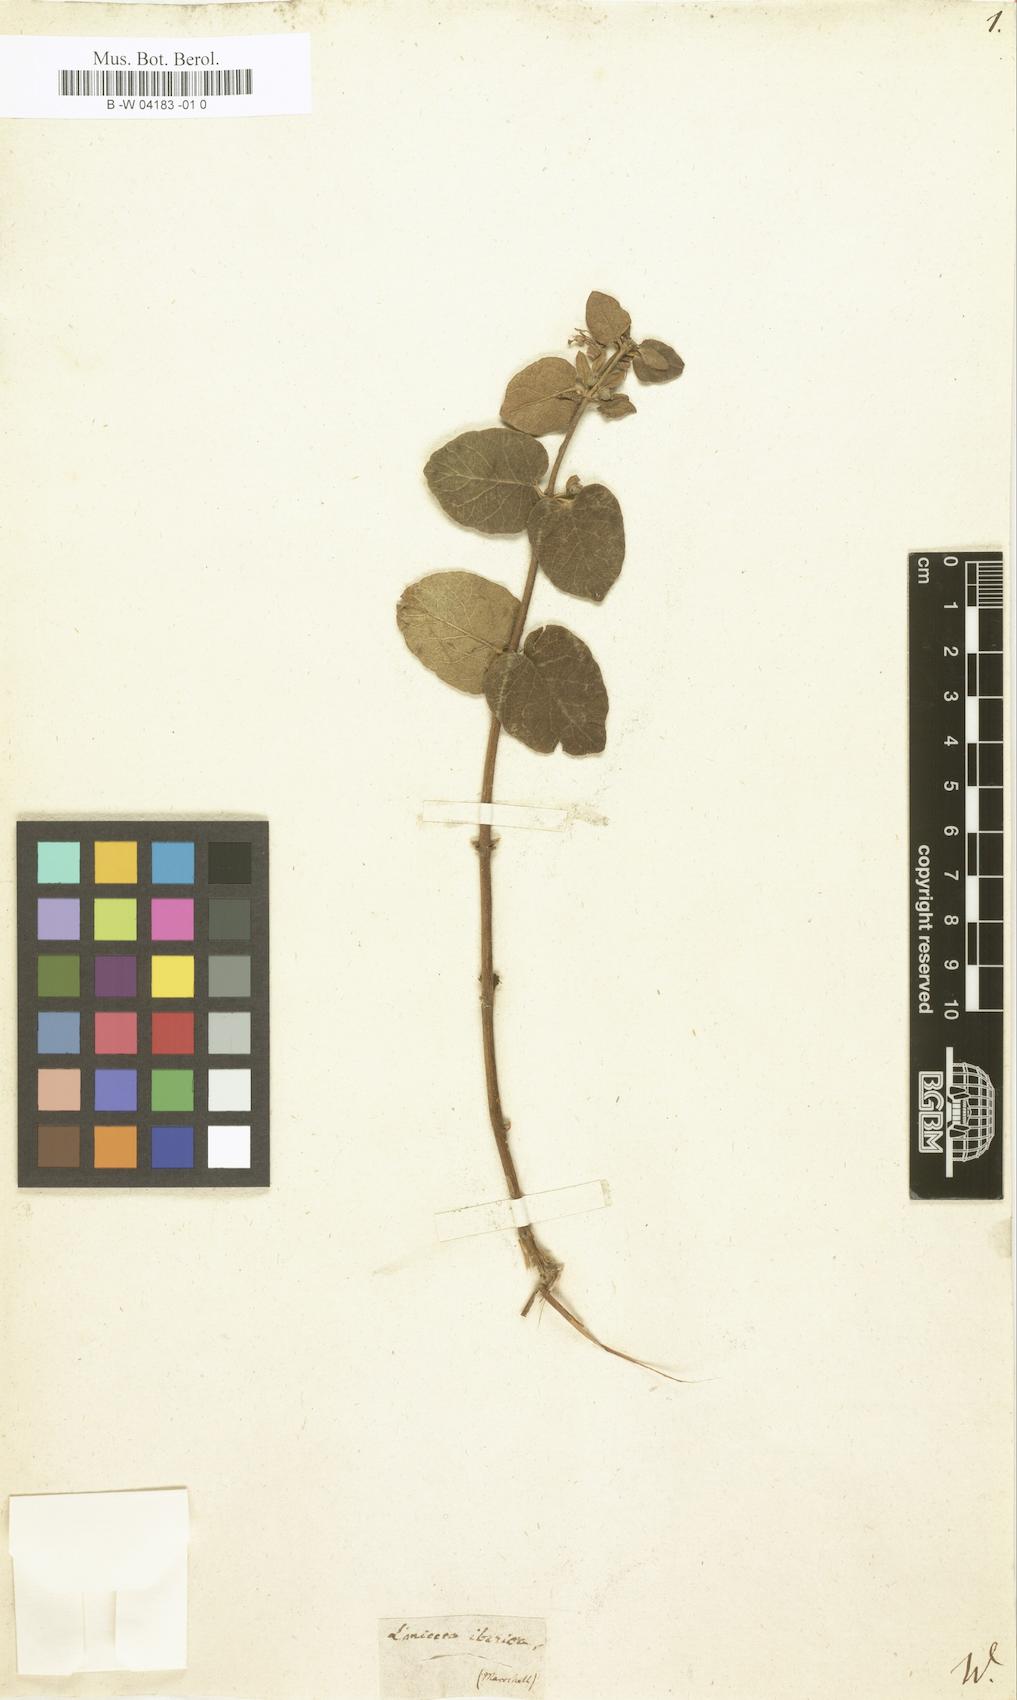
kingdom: Plantae
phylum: Tracheophyta
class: Magnoliopsida
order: Dipsacales
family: Caprifoliaceae
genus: Lonicera
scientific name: Lonicera iberica
